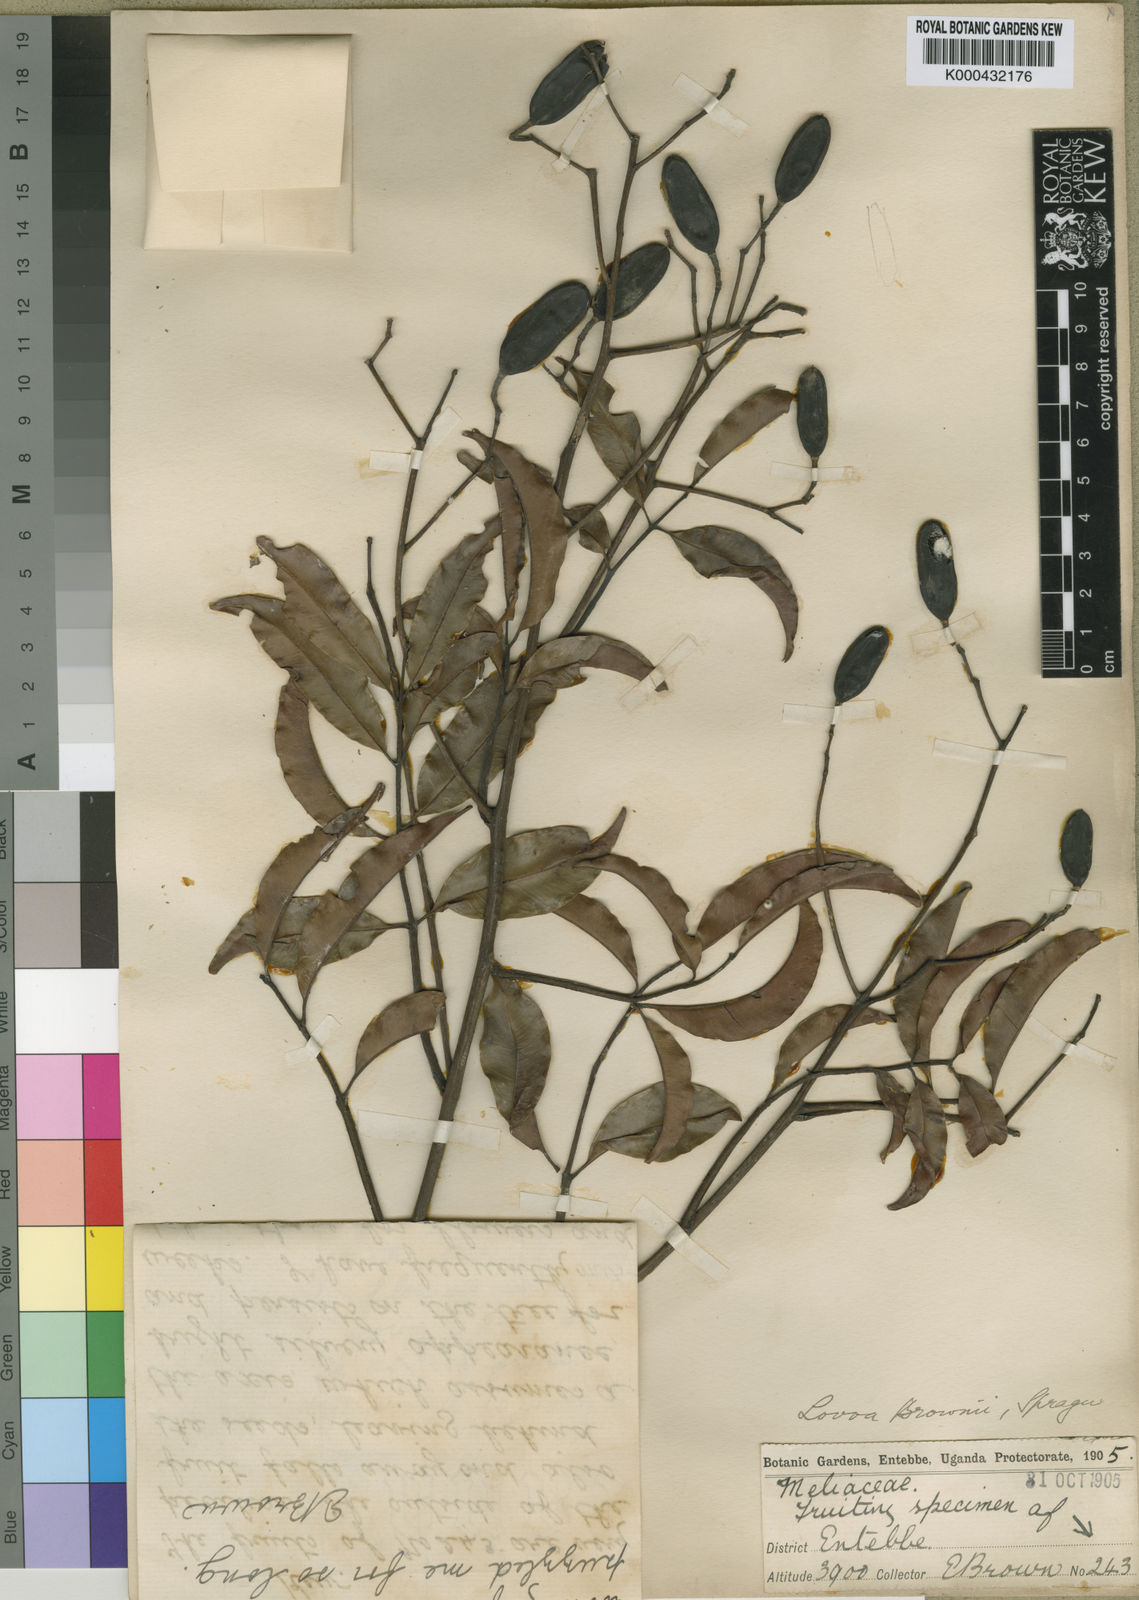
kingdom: Plantae
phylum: Tracheophyta
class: Magnoliopsida
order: Sapindales
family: Meliaceae
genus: Lovoa
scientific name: Lovoa trichilioides
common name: Congowood
